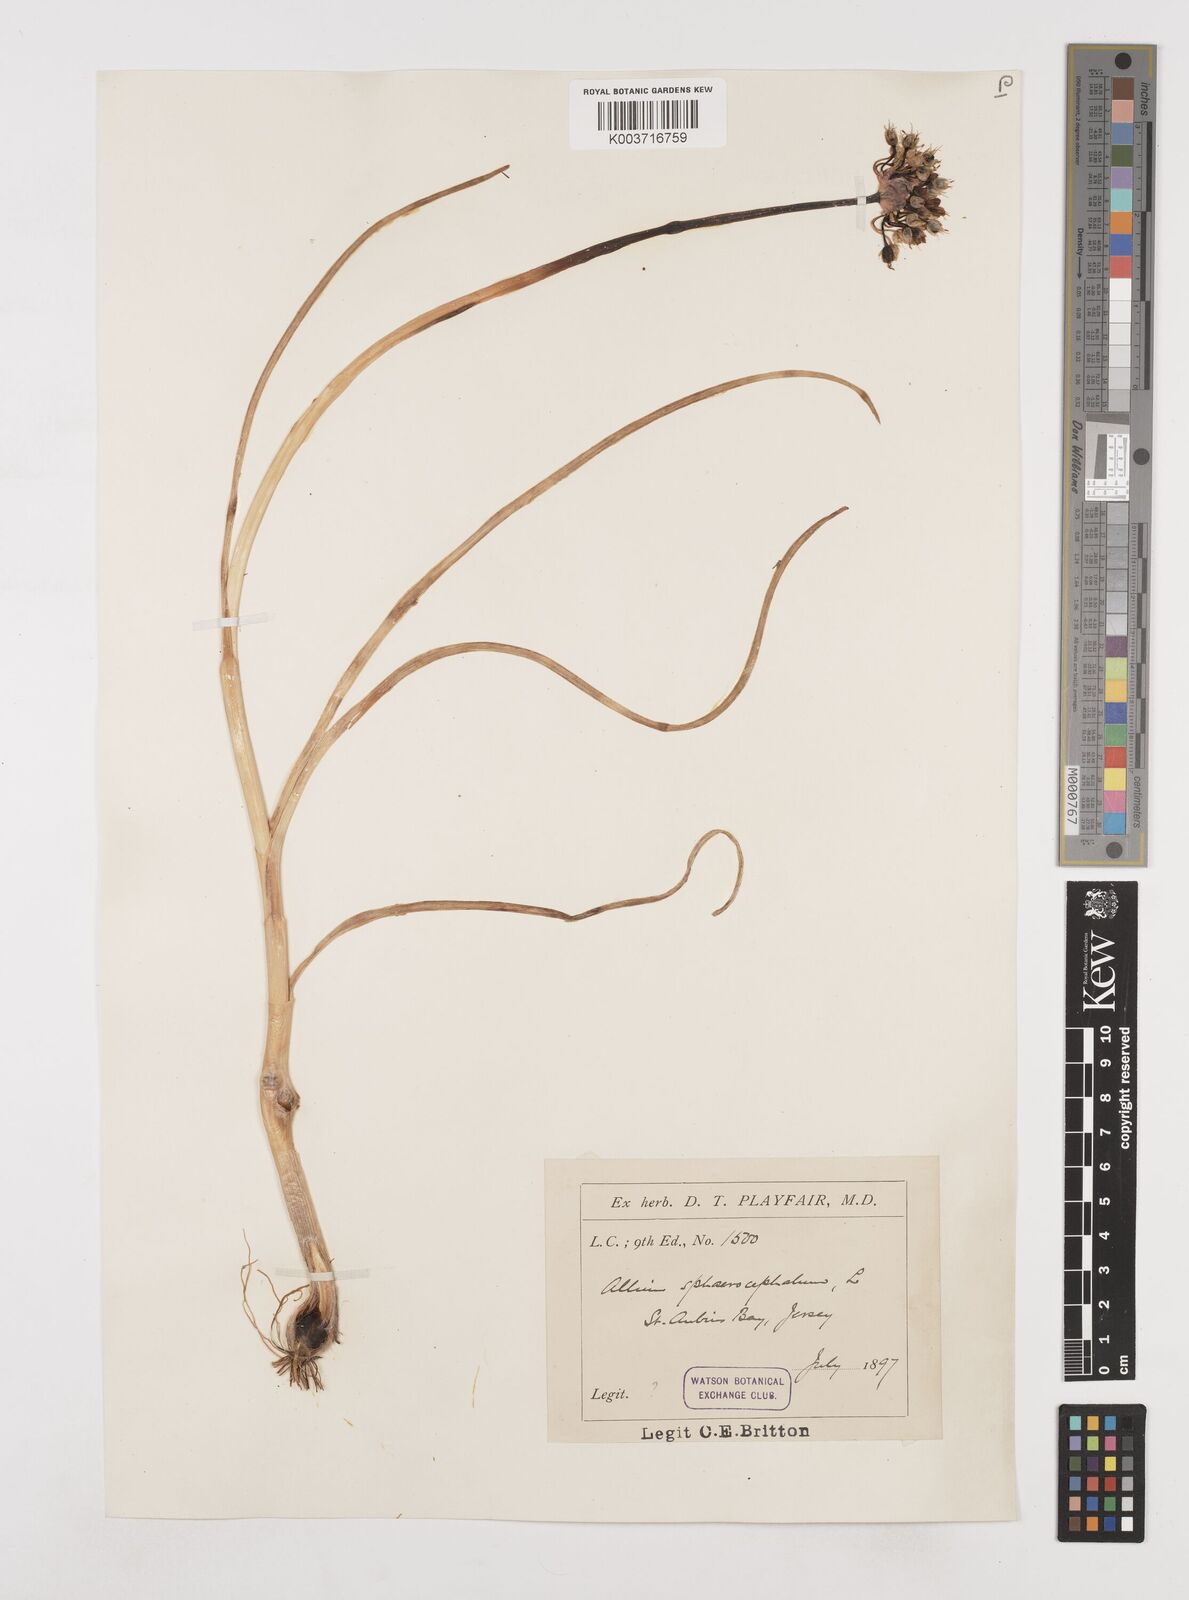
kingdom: Plantae
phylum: Tracheophyta
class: Liliopsida
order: Asparagales
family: Amaryllidaceae
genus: Allium
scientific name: Allium sphaerocephalon
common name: Round-headed leek
